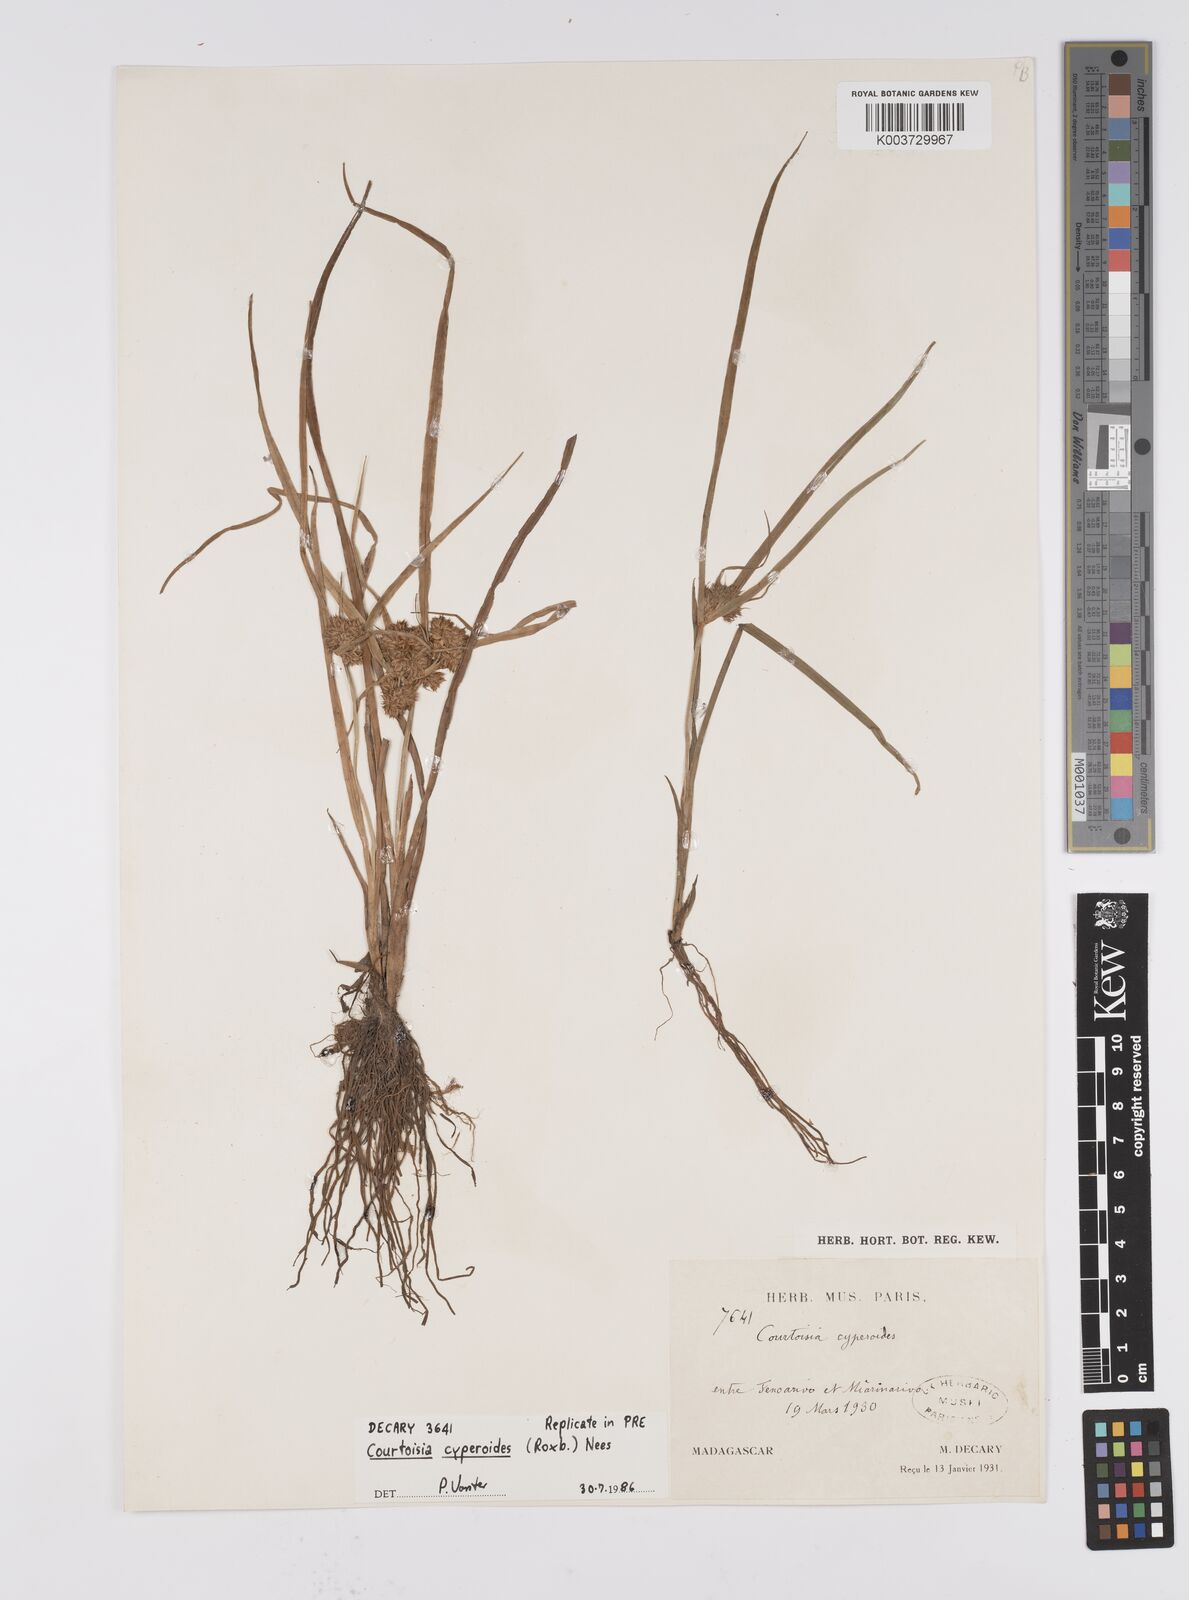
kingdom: Plantae
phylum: Tracheophyta
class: Liliopsida
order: Poales
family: Cyperaceae
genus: Cyperus
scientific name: Cyperus cyperoides
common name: Pacific island flat sedge
